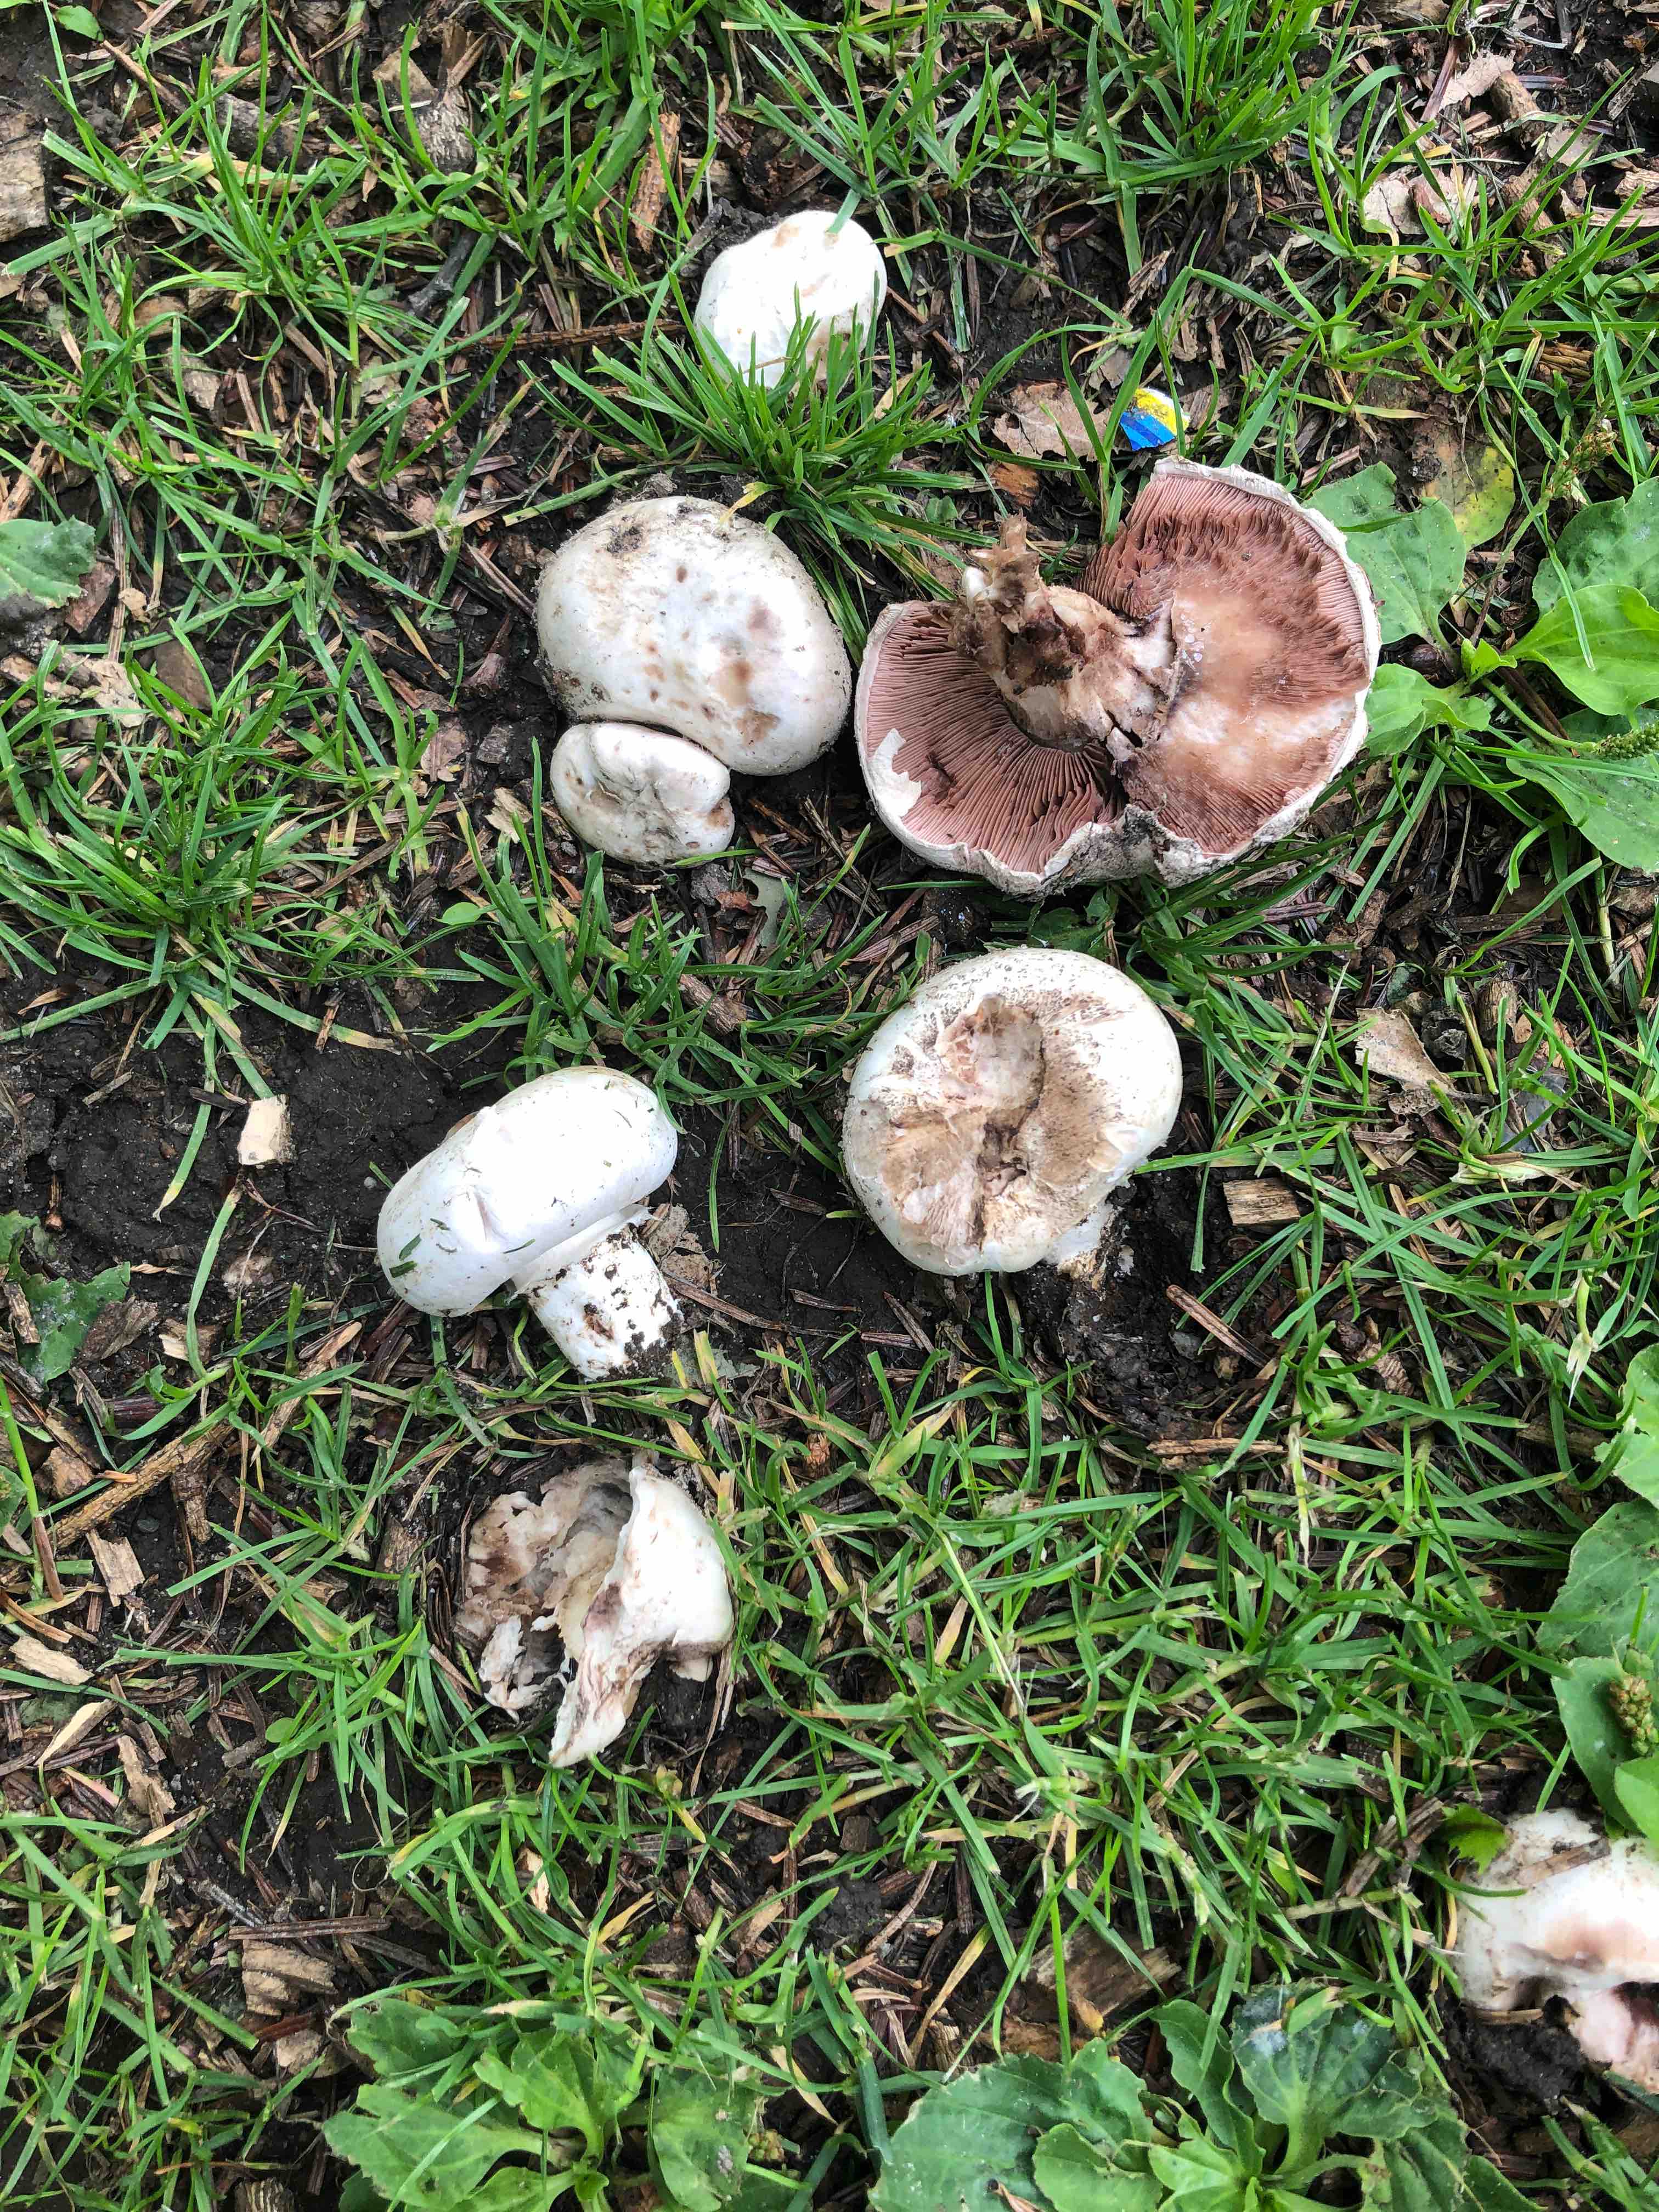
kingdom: Fungi
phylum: Basidiomycota
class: Agaricomycetes
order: Agaricales
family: Agaricaceae
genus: Agaricus
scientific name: Agaricus bitorquis
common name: vej-champignon
